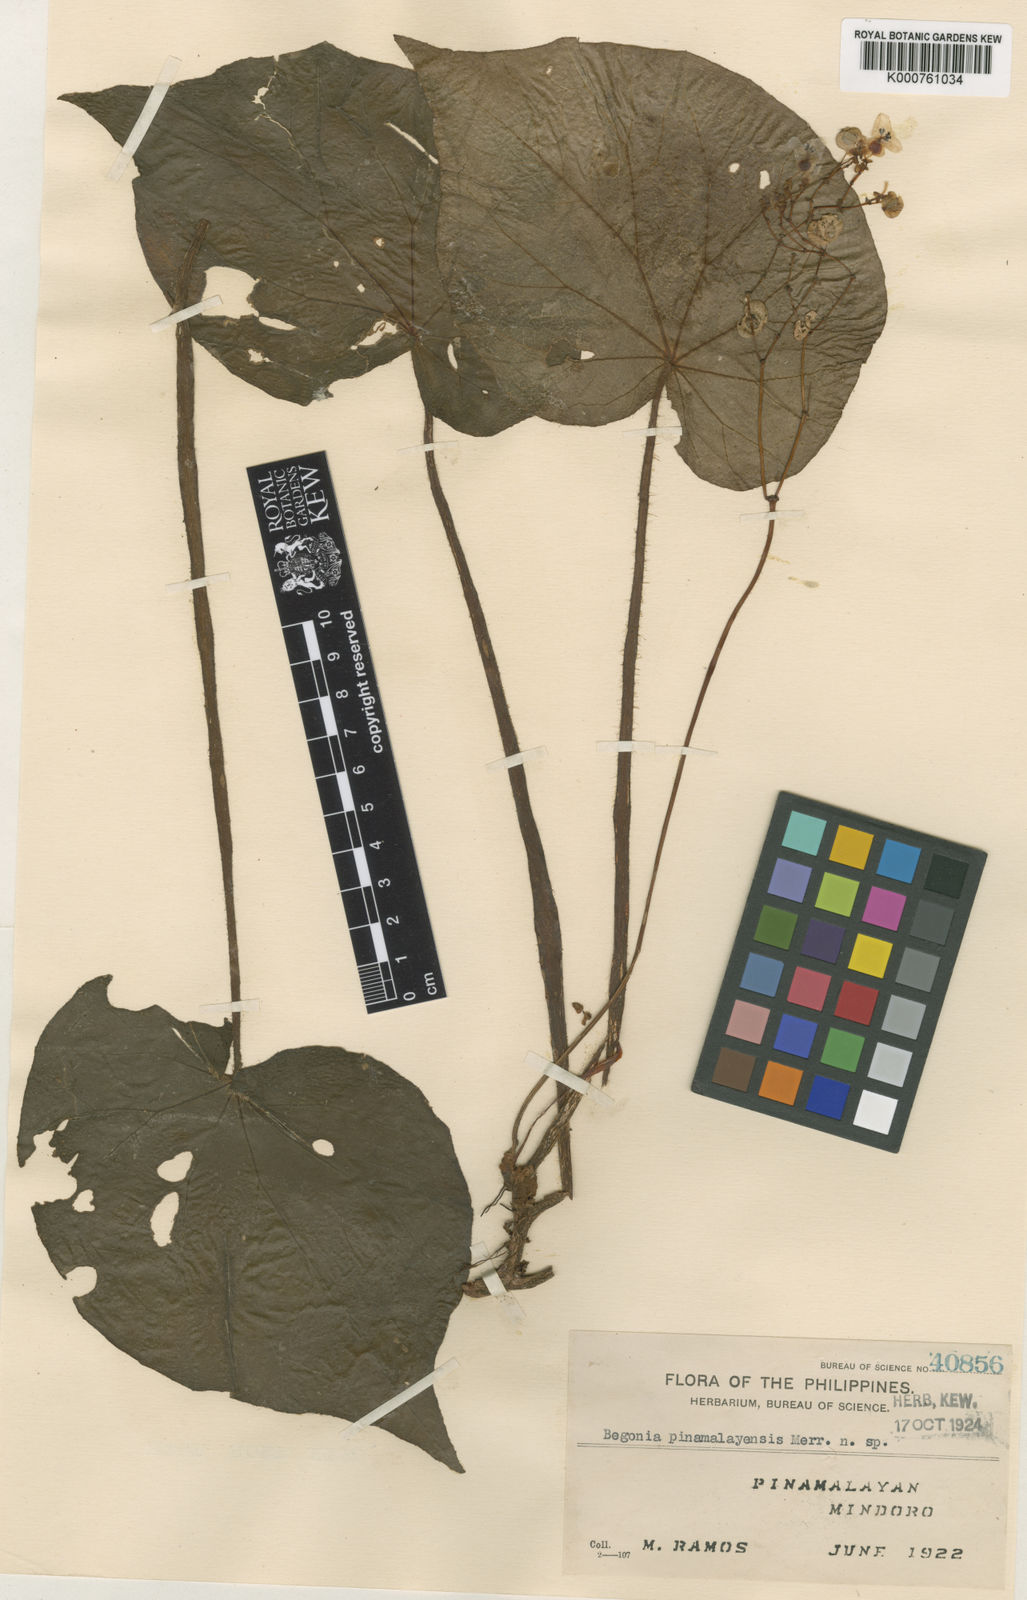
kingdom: Plantae
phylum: Tracheophyta
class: Magnoliopsida
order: Cucurbitales
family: Begoniaceae
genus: Begonia
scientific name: Begonia mindorensis
